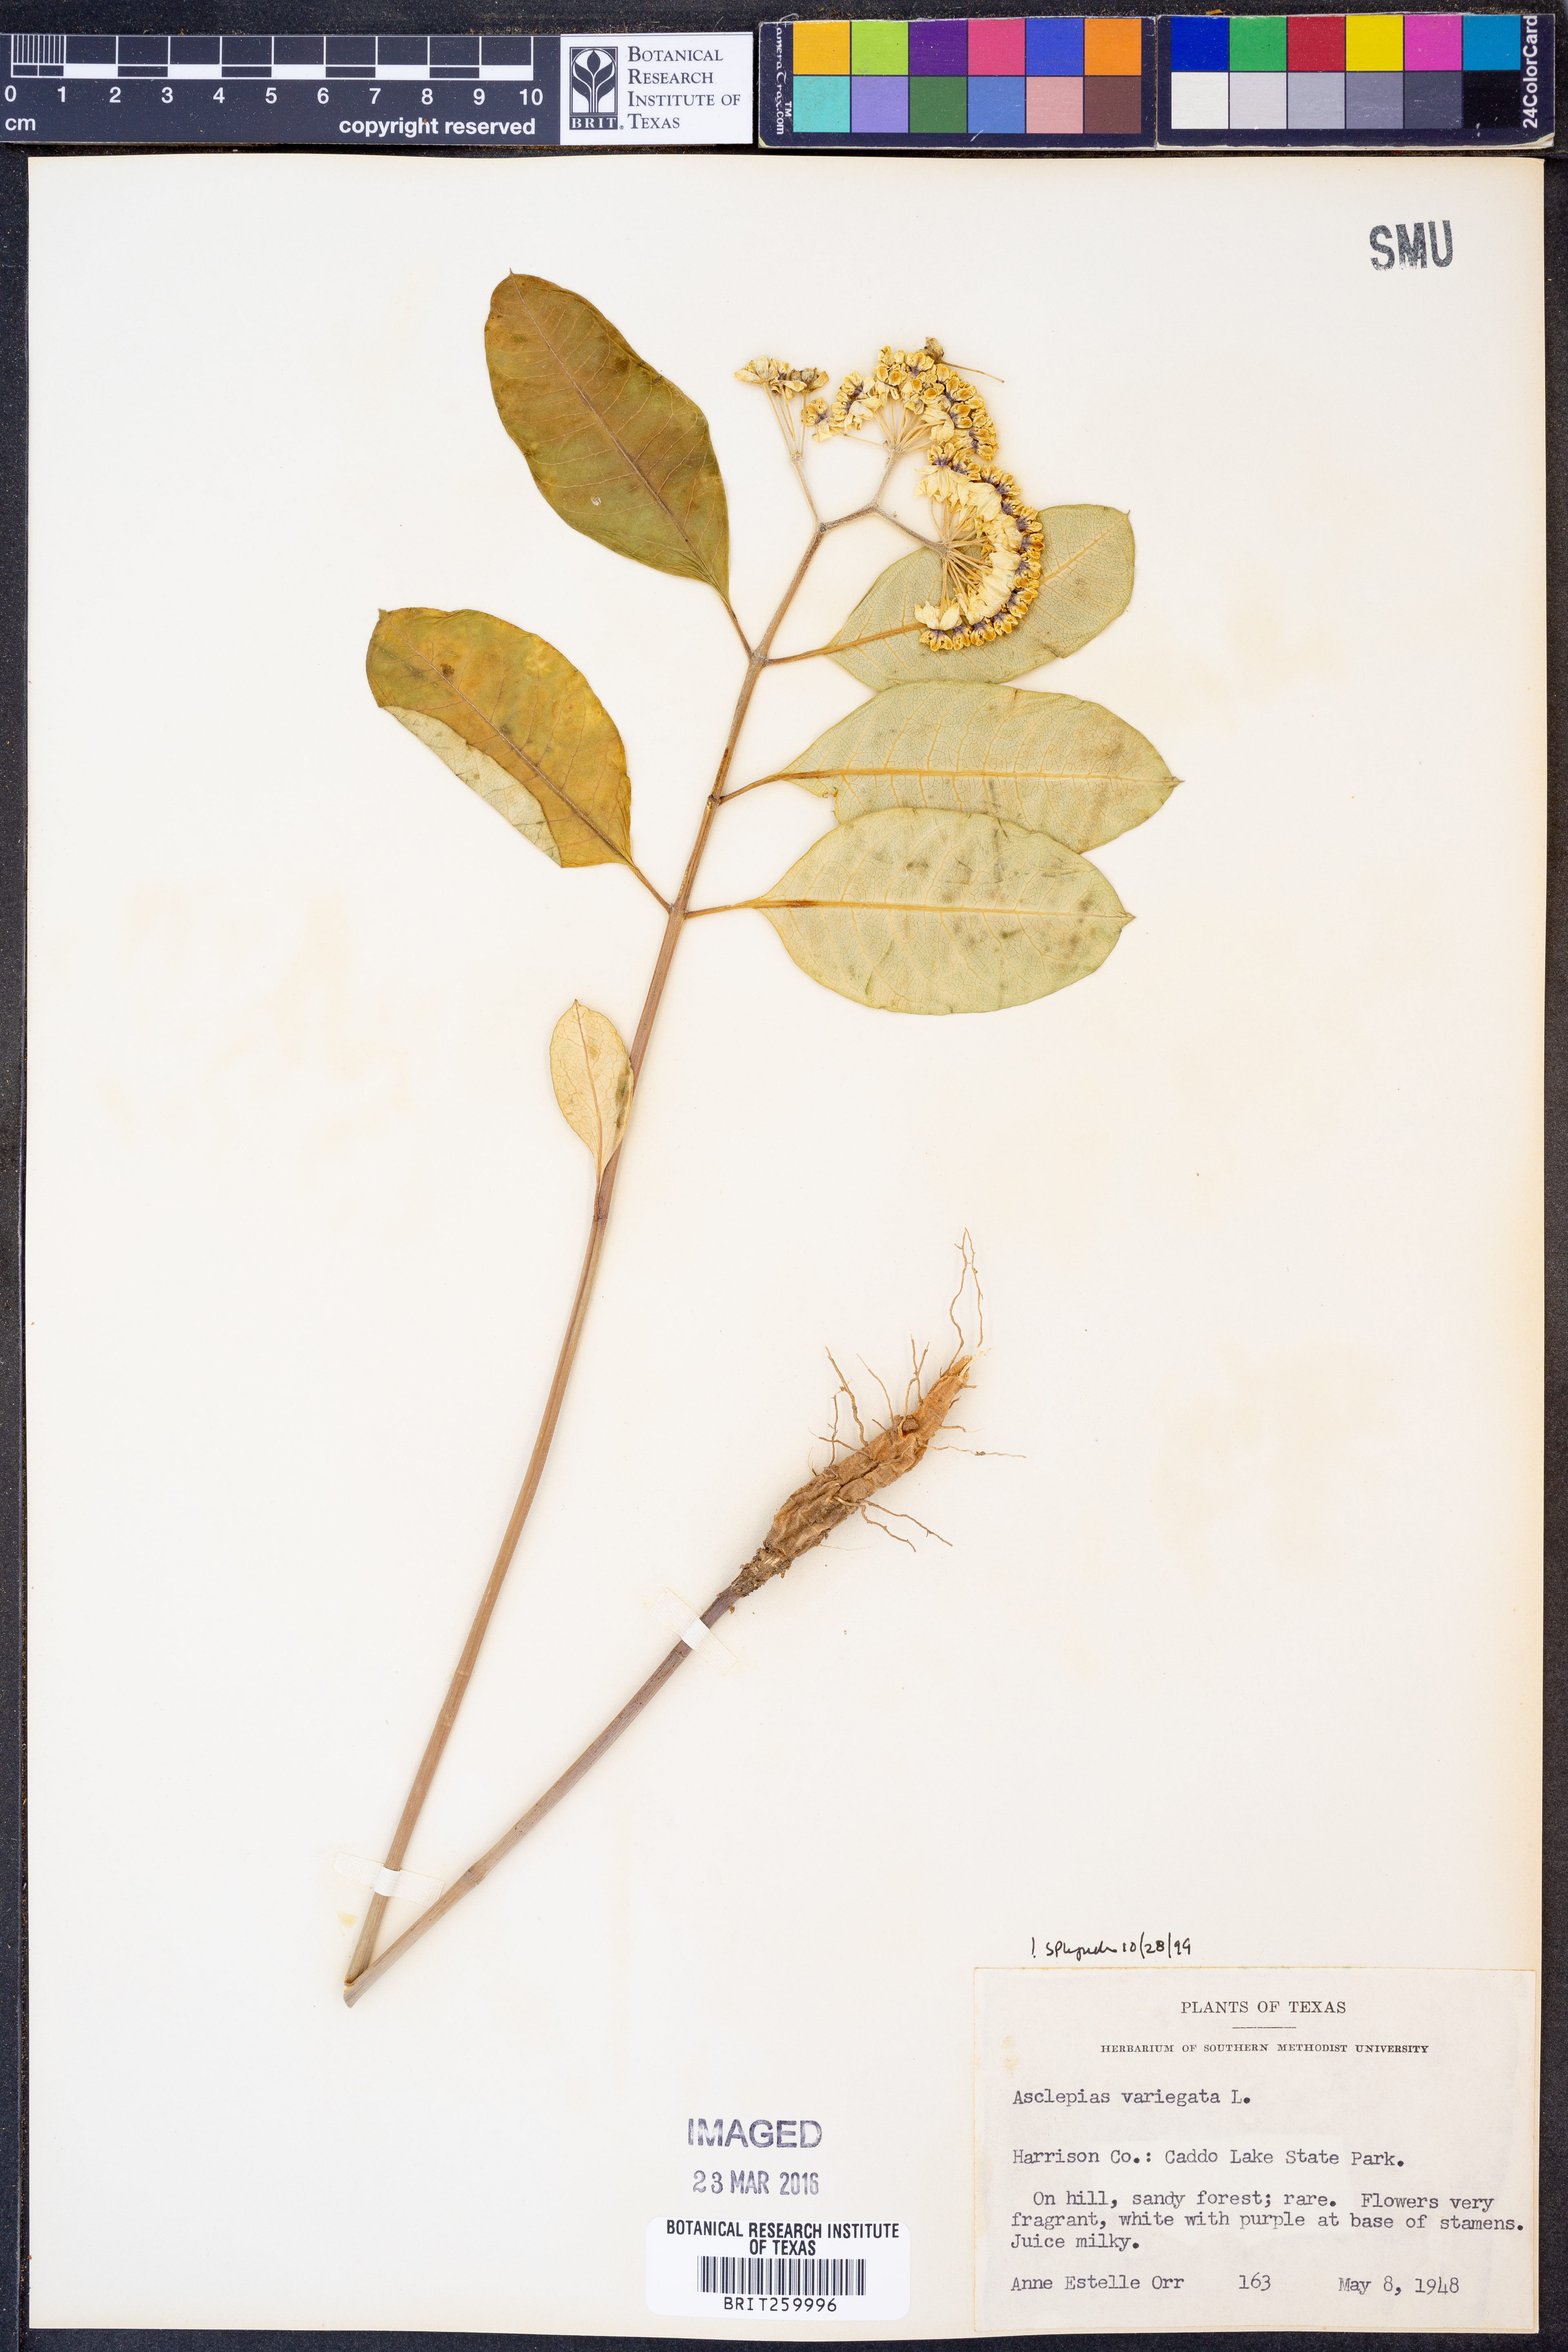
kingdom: Plantae
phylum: Tracheophyta
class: Magnoliopsida
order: Gentianales
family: Apocynaceae
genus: Asclepias
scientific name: Asclepias variegata
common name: Variegated milkweed
